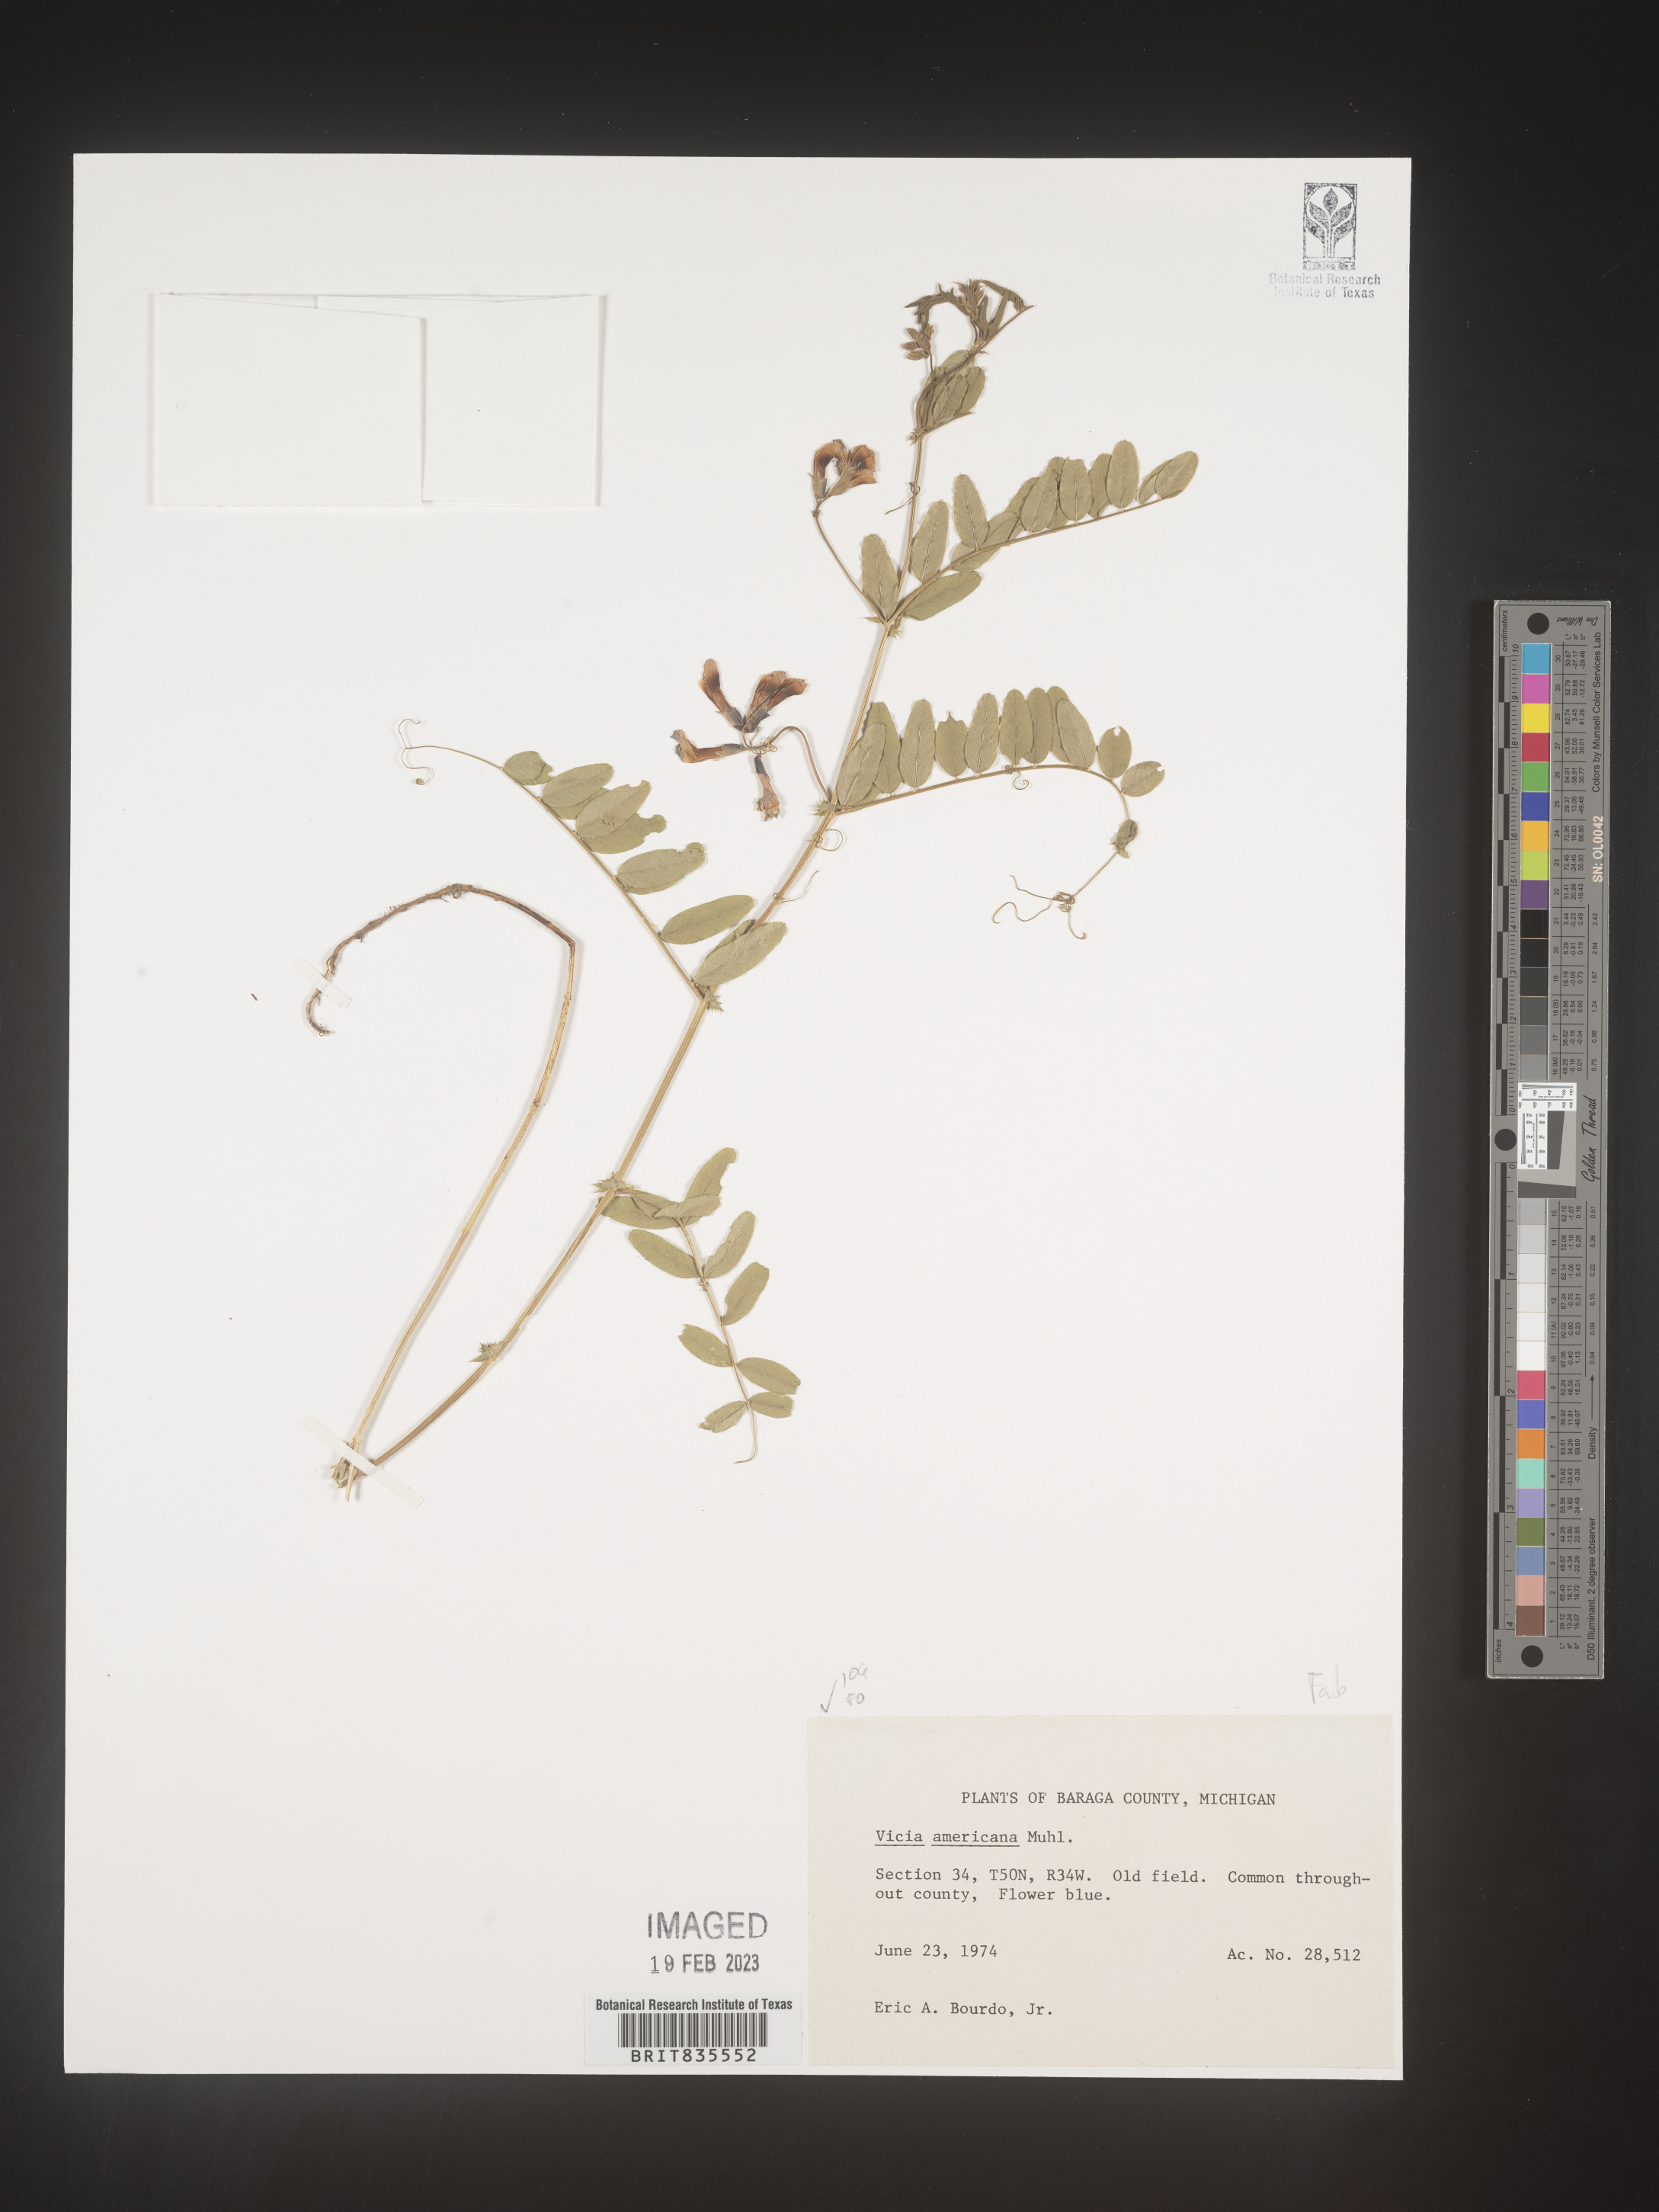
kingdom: Plantae
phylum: Tracheophyta
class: Magnoliopsida
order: Fabales
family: Fabaceae
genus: Vicia
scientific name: Vicia americana
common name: American vetch
